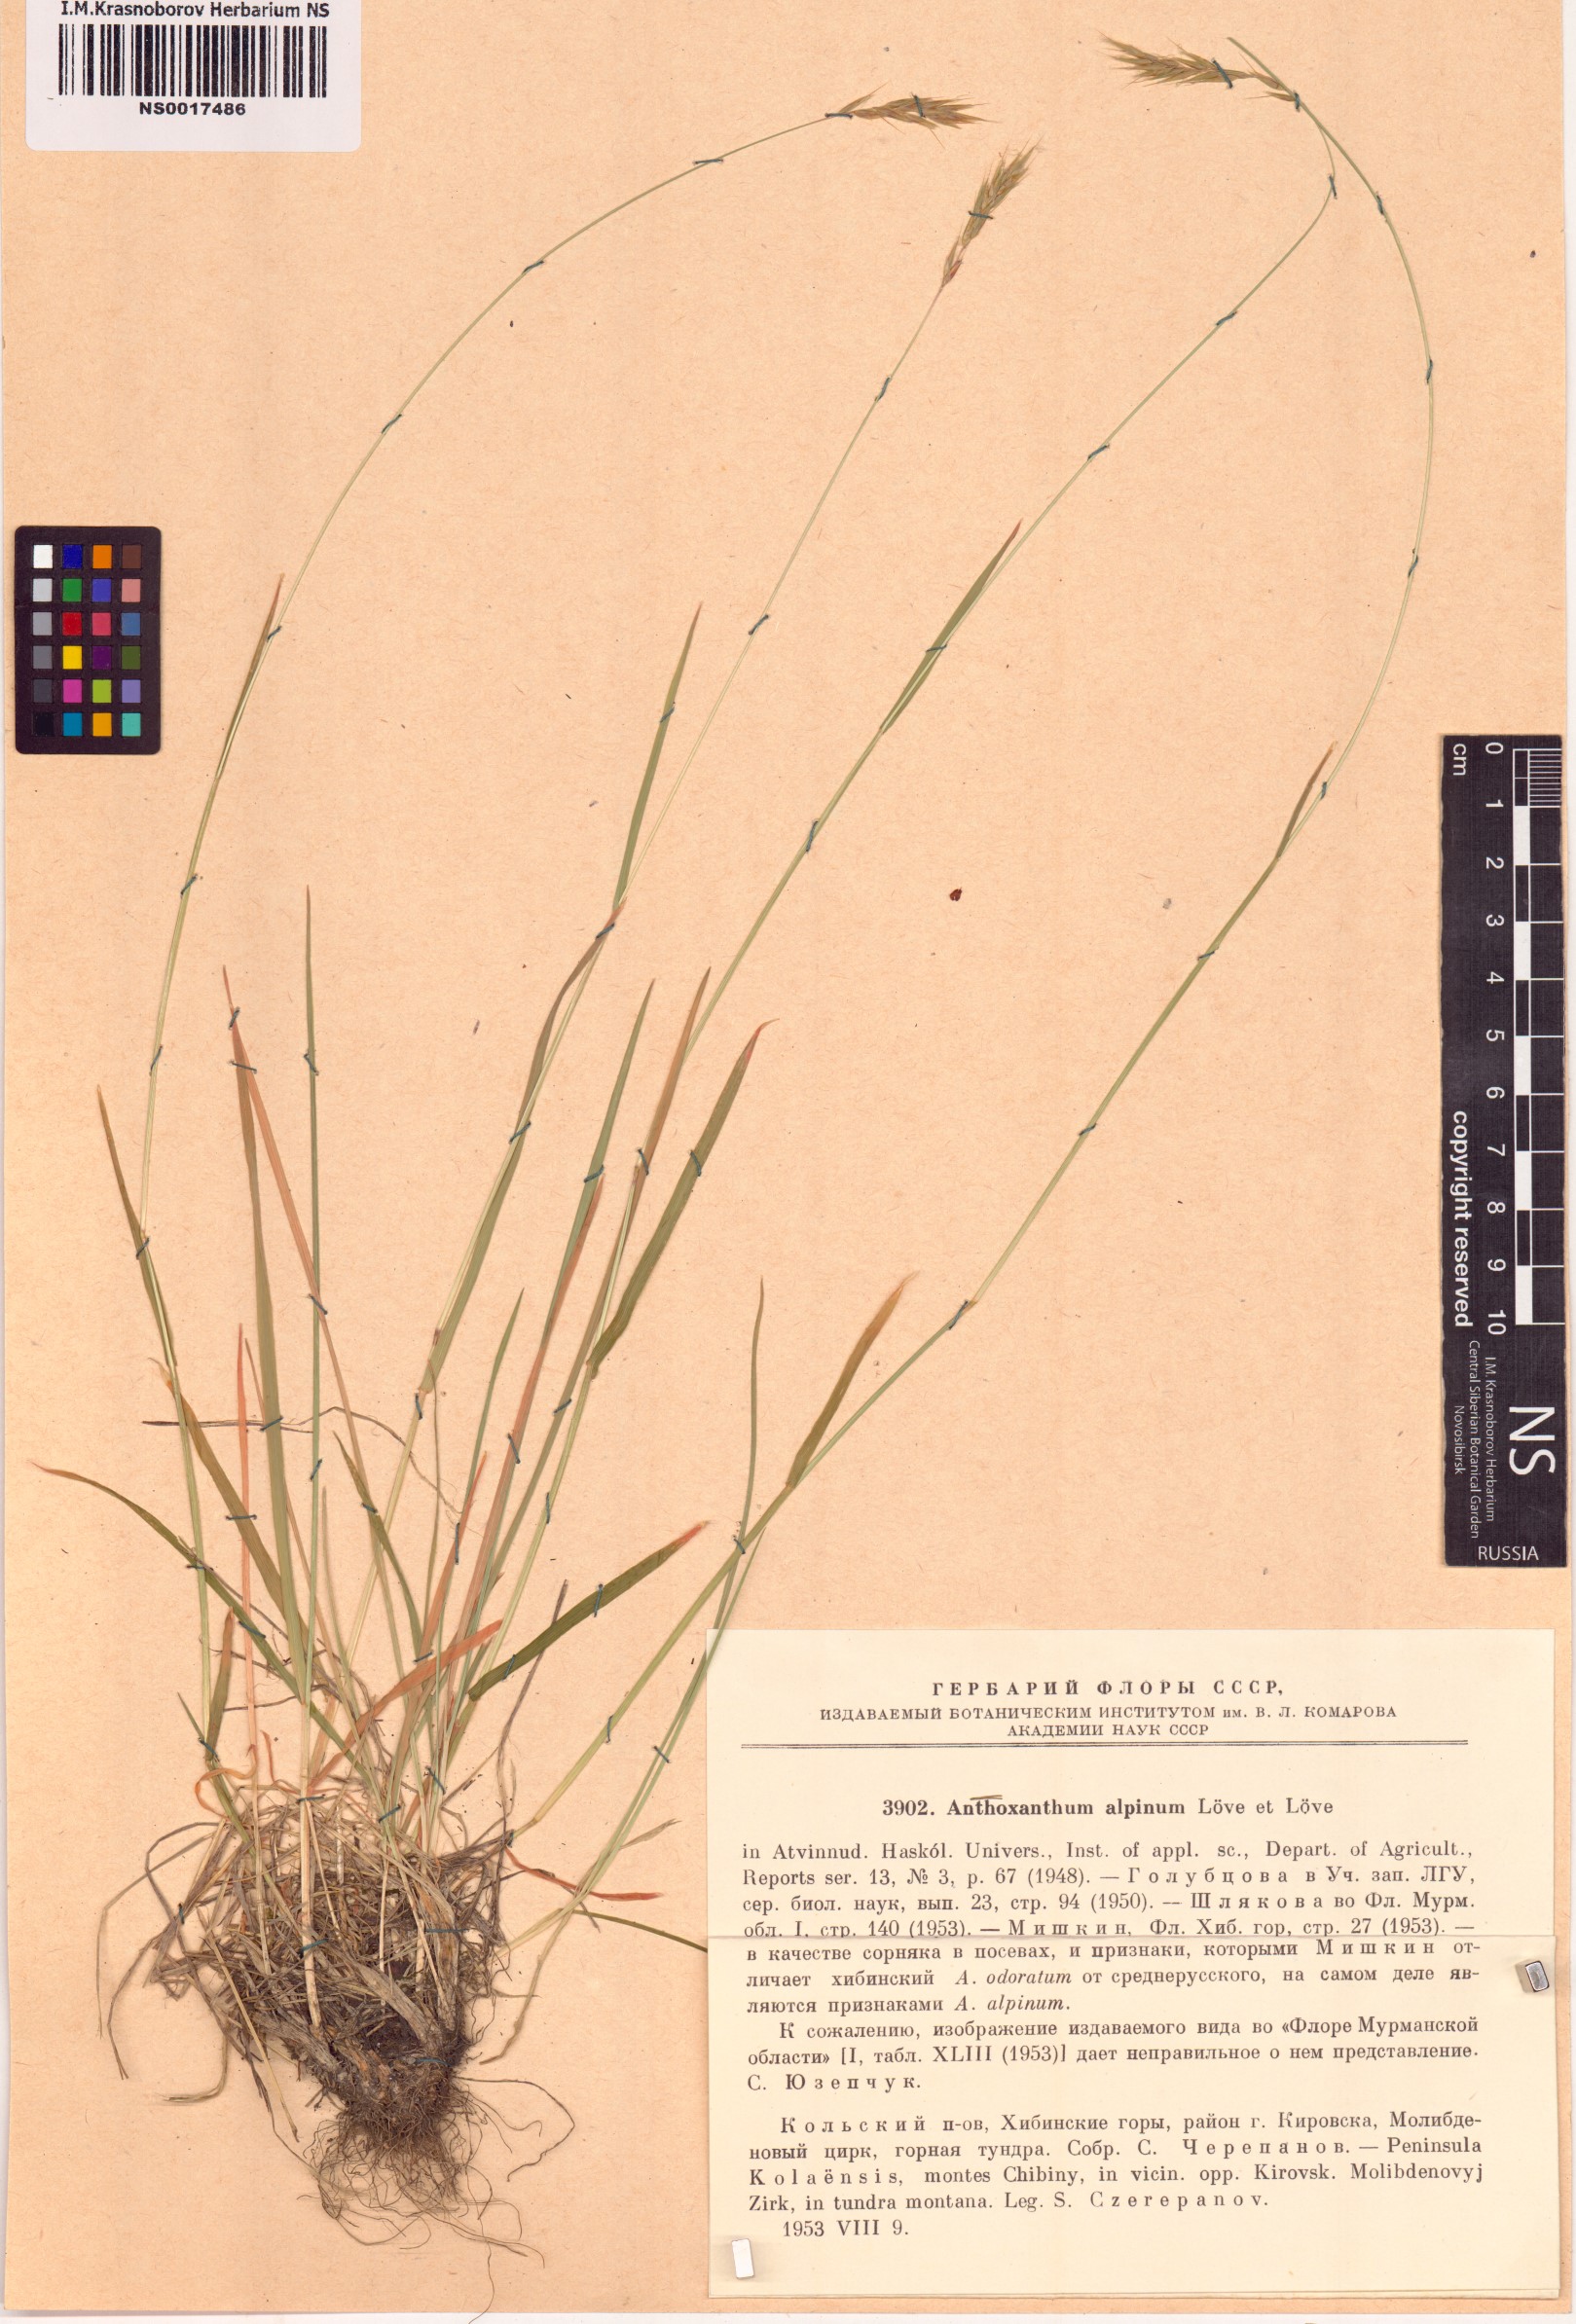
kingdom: Plantae
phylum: Tracheophyta
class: Liliopsida
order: Poales
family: Poaceae
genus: Anthoxanthum
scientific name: Anthoxanthum nipponicum
